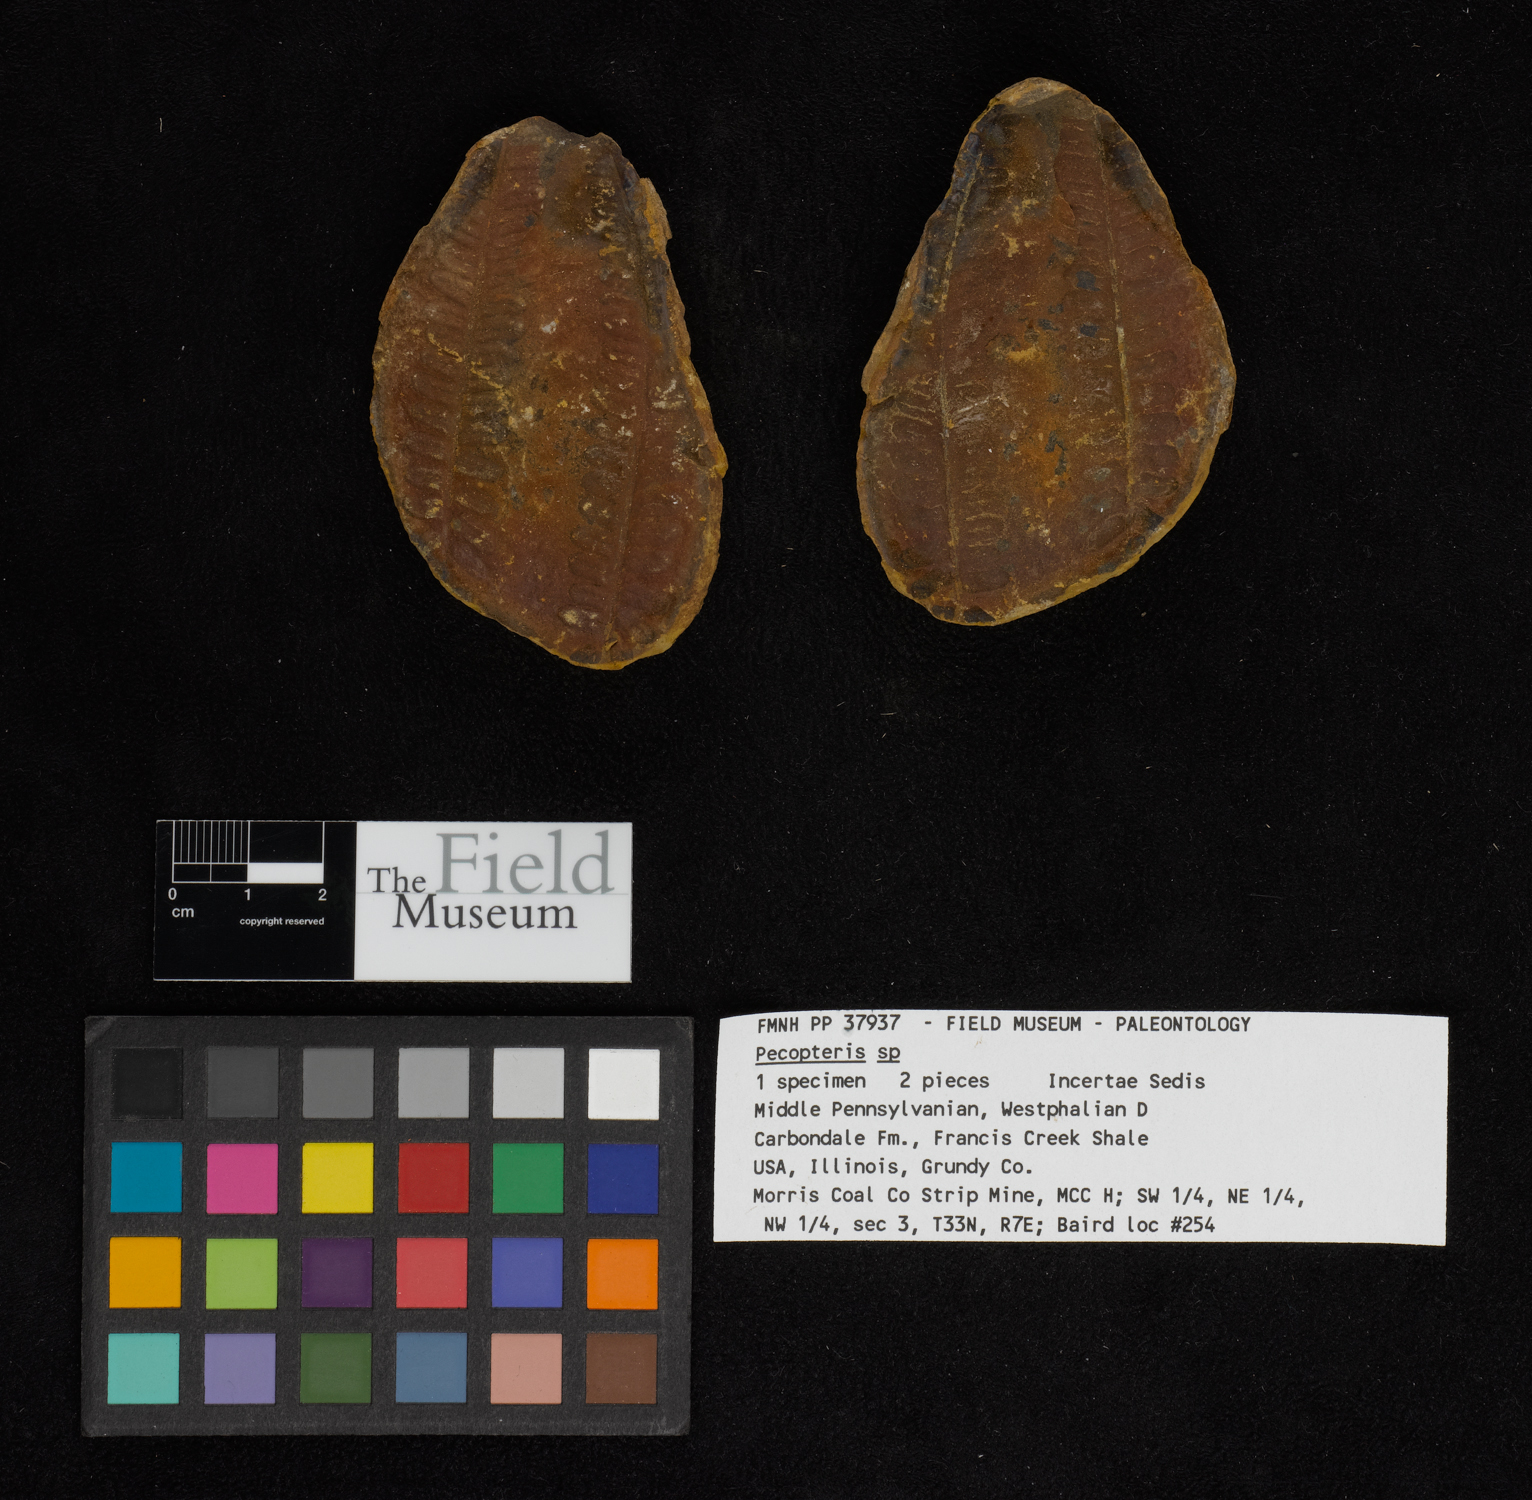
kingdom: Plantae
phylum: Tracheophyta
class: Polypodiopsida
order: Marattiales
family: Asterothecaceae
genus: Pecopteris
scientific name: Pecopteris
